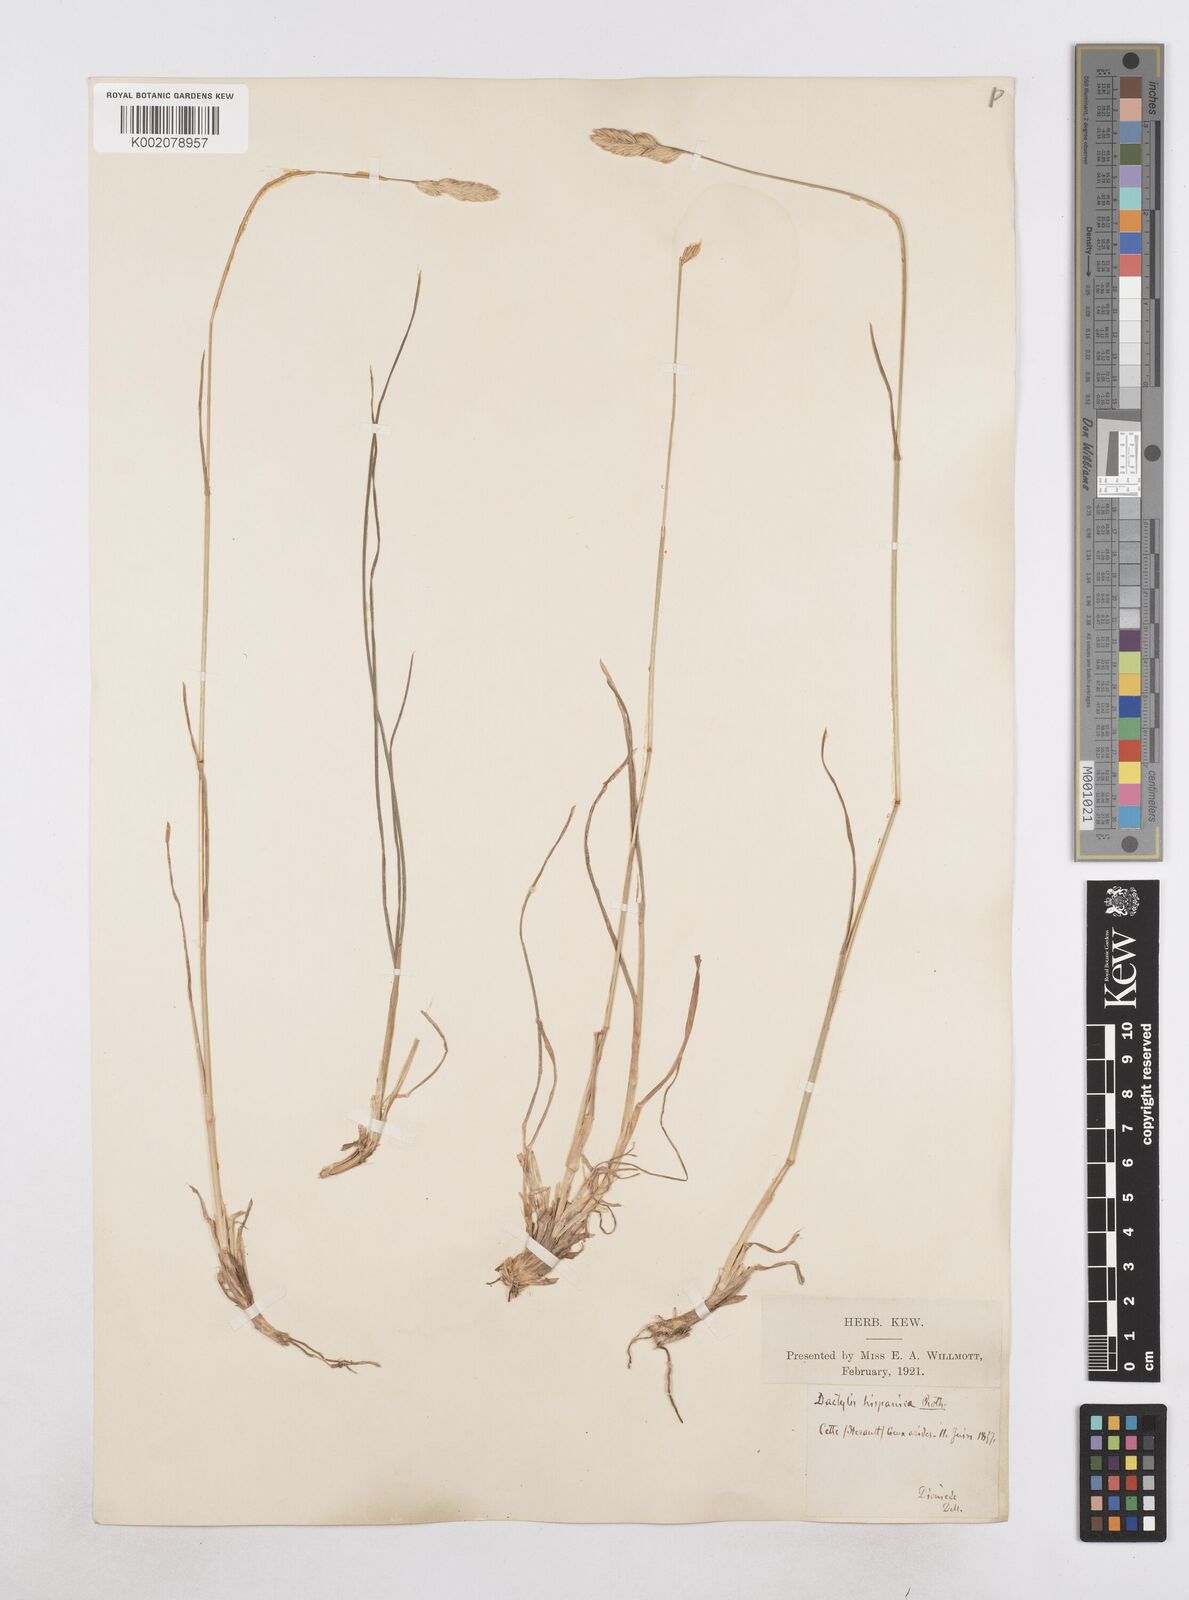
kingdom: Plantae
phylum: Tracheophyta
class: Liliopsida
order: Poales
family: Poaceae
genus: Dactylis
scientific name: Dactylis glomerata
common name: Orchardgrass
